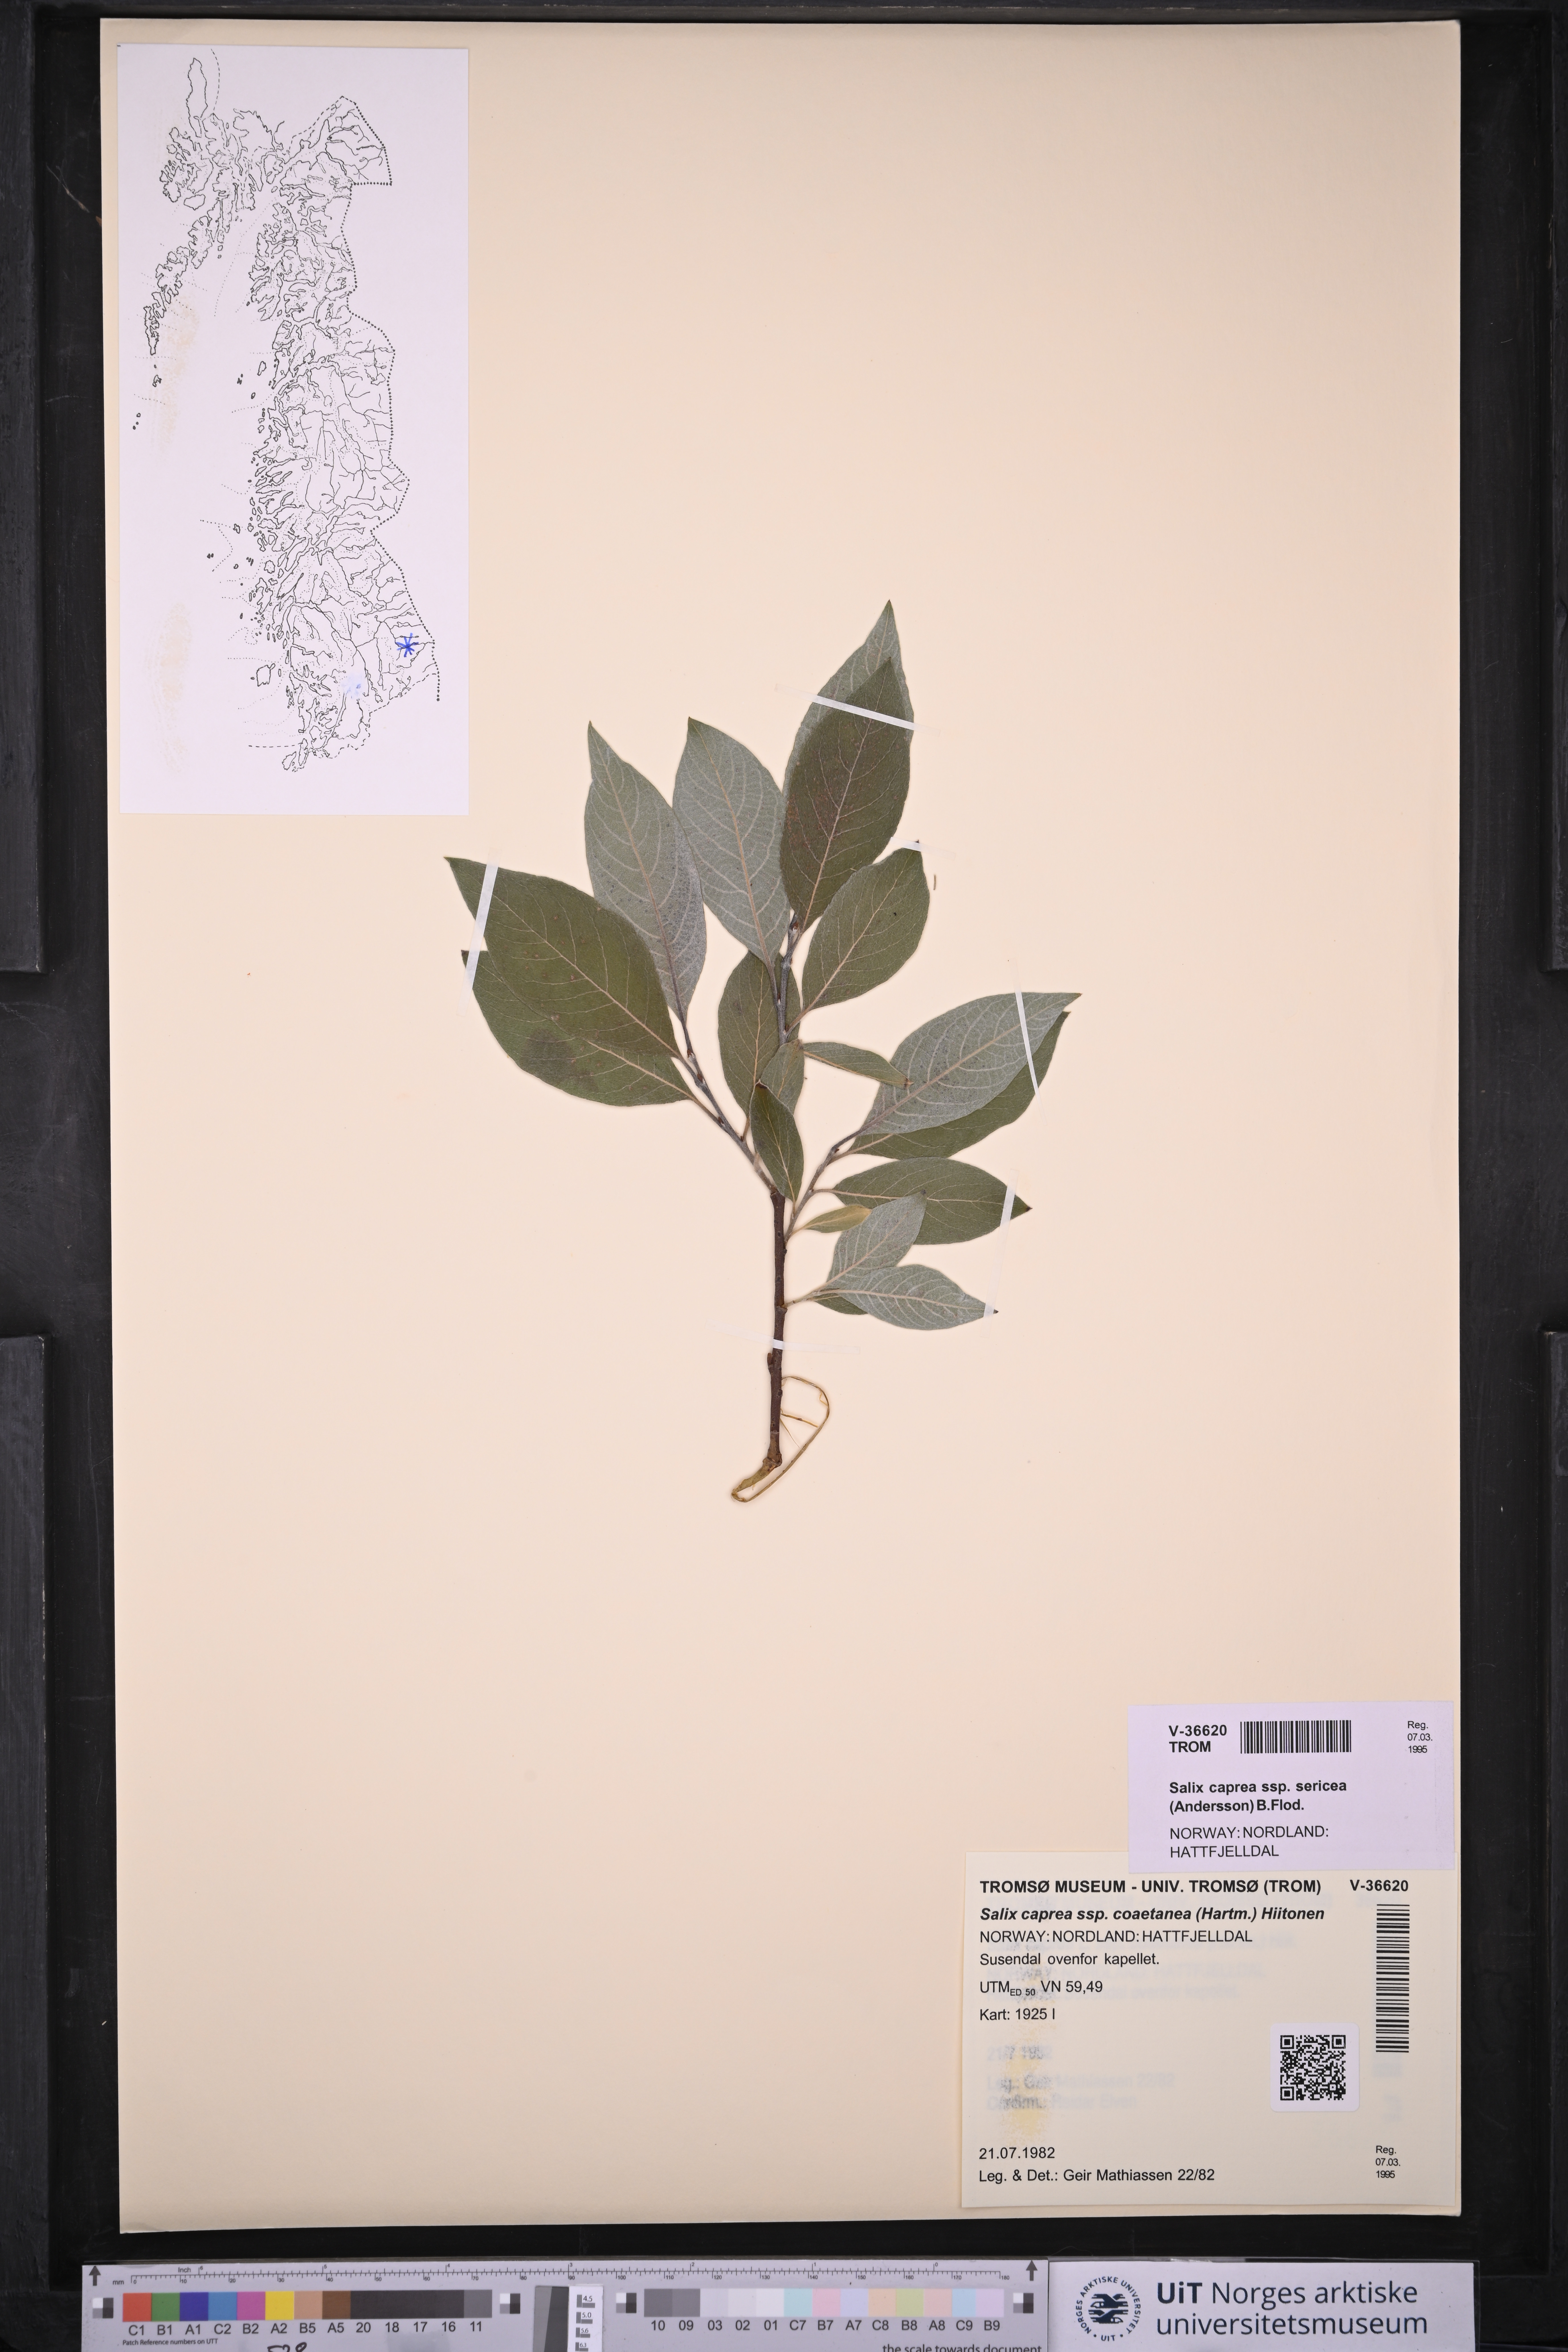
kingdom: Plantae
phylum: Tracheophyta
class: Magnoliopsida
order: Malpighiales
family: Salicaceae
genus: Salix
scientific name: Salix caprea
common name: Goat willow
